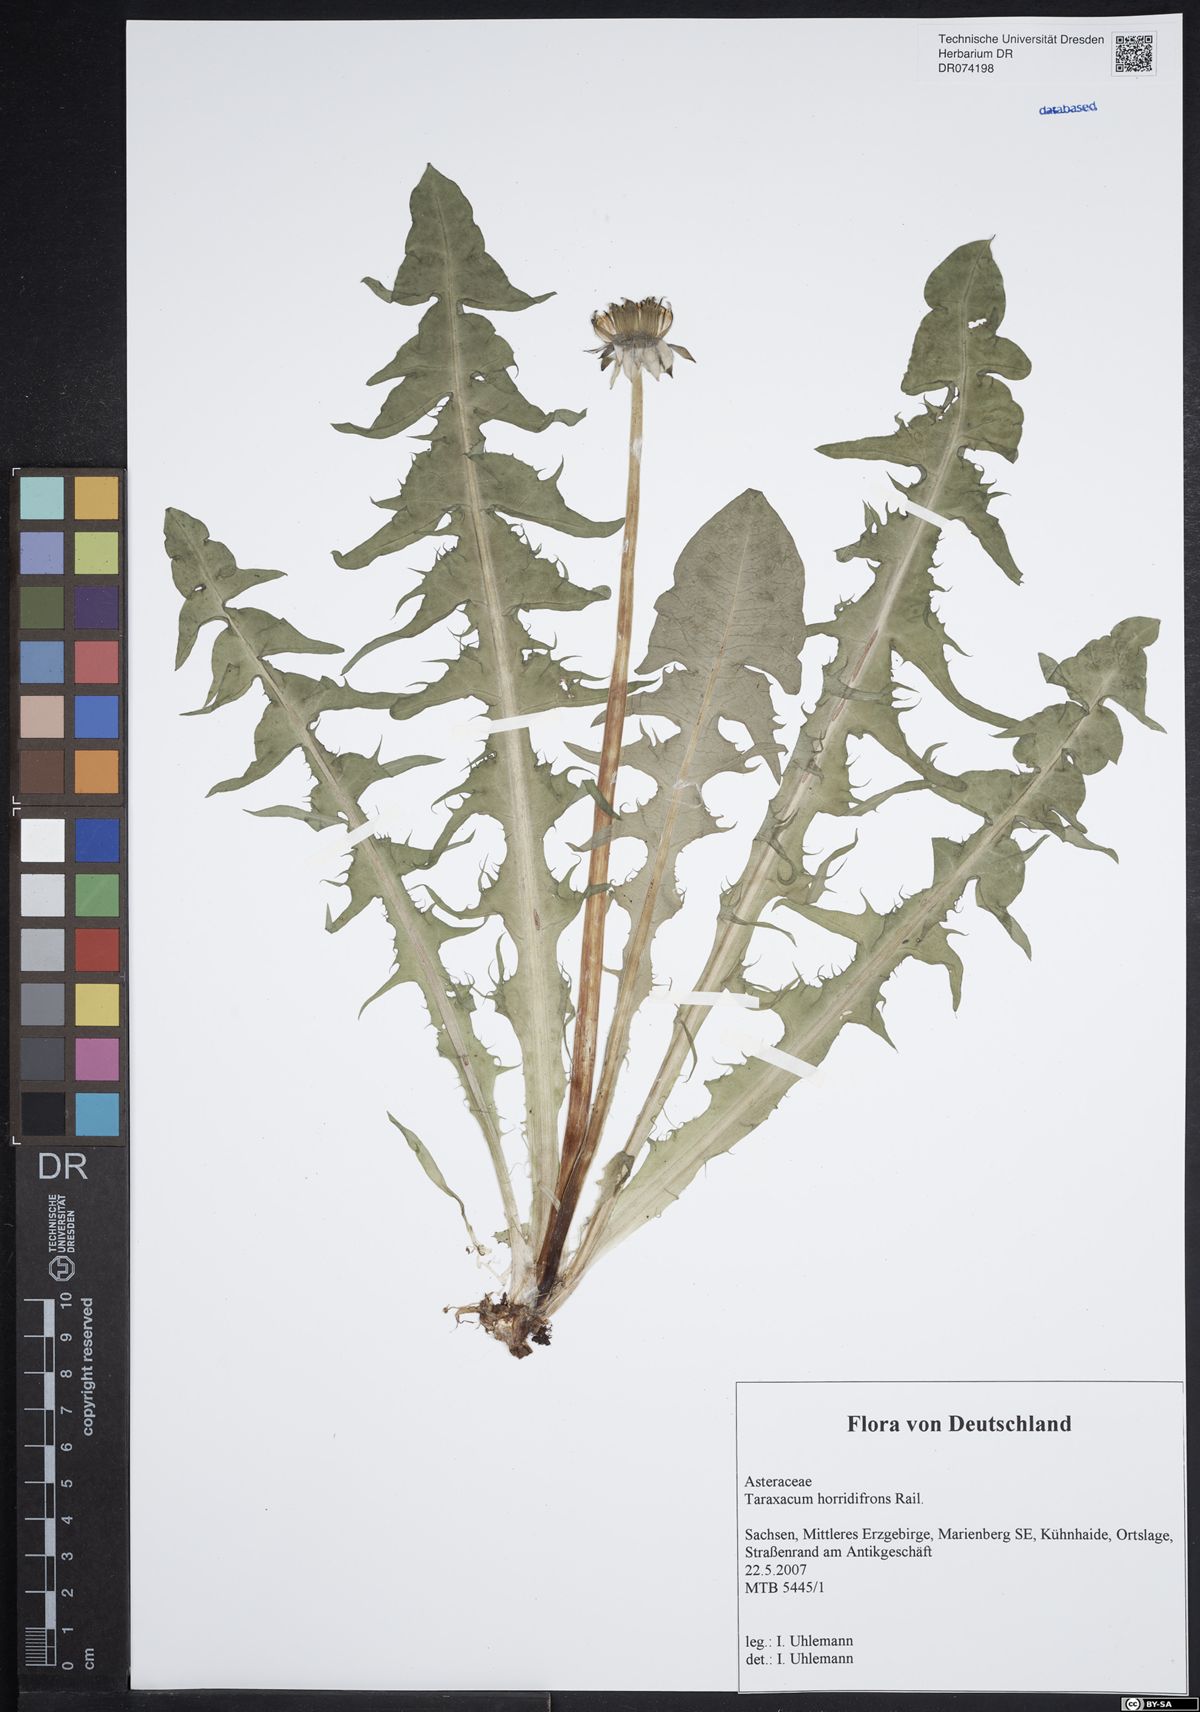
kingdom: Plantae
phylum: Tracheophyta
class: Magnoliopsida
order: Asterales
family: Asteraceae
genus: Taraxacum
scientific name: Taraxacum horridifrons
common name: Prickly-leaved dandelion
